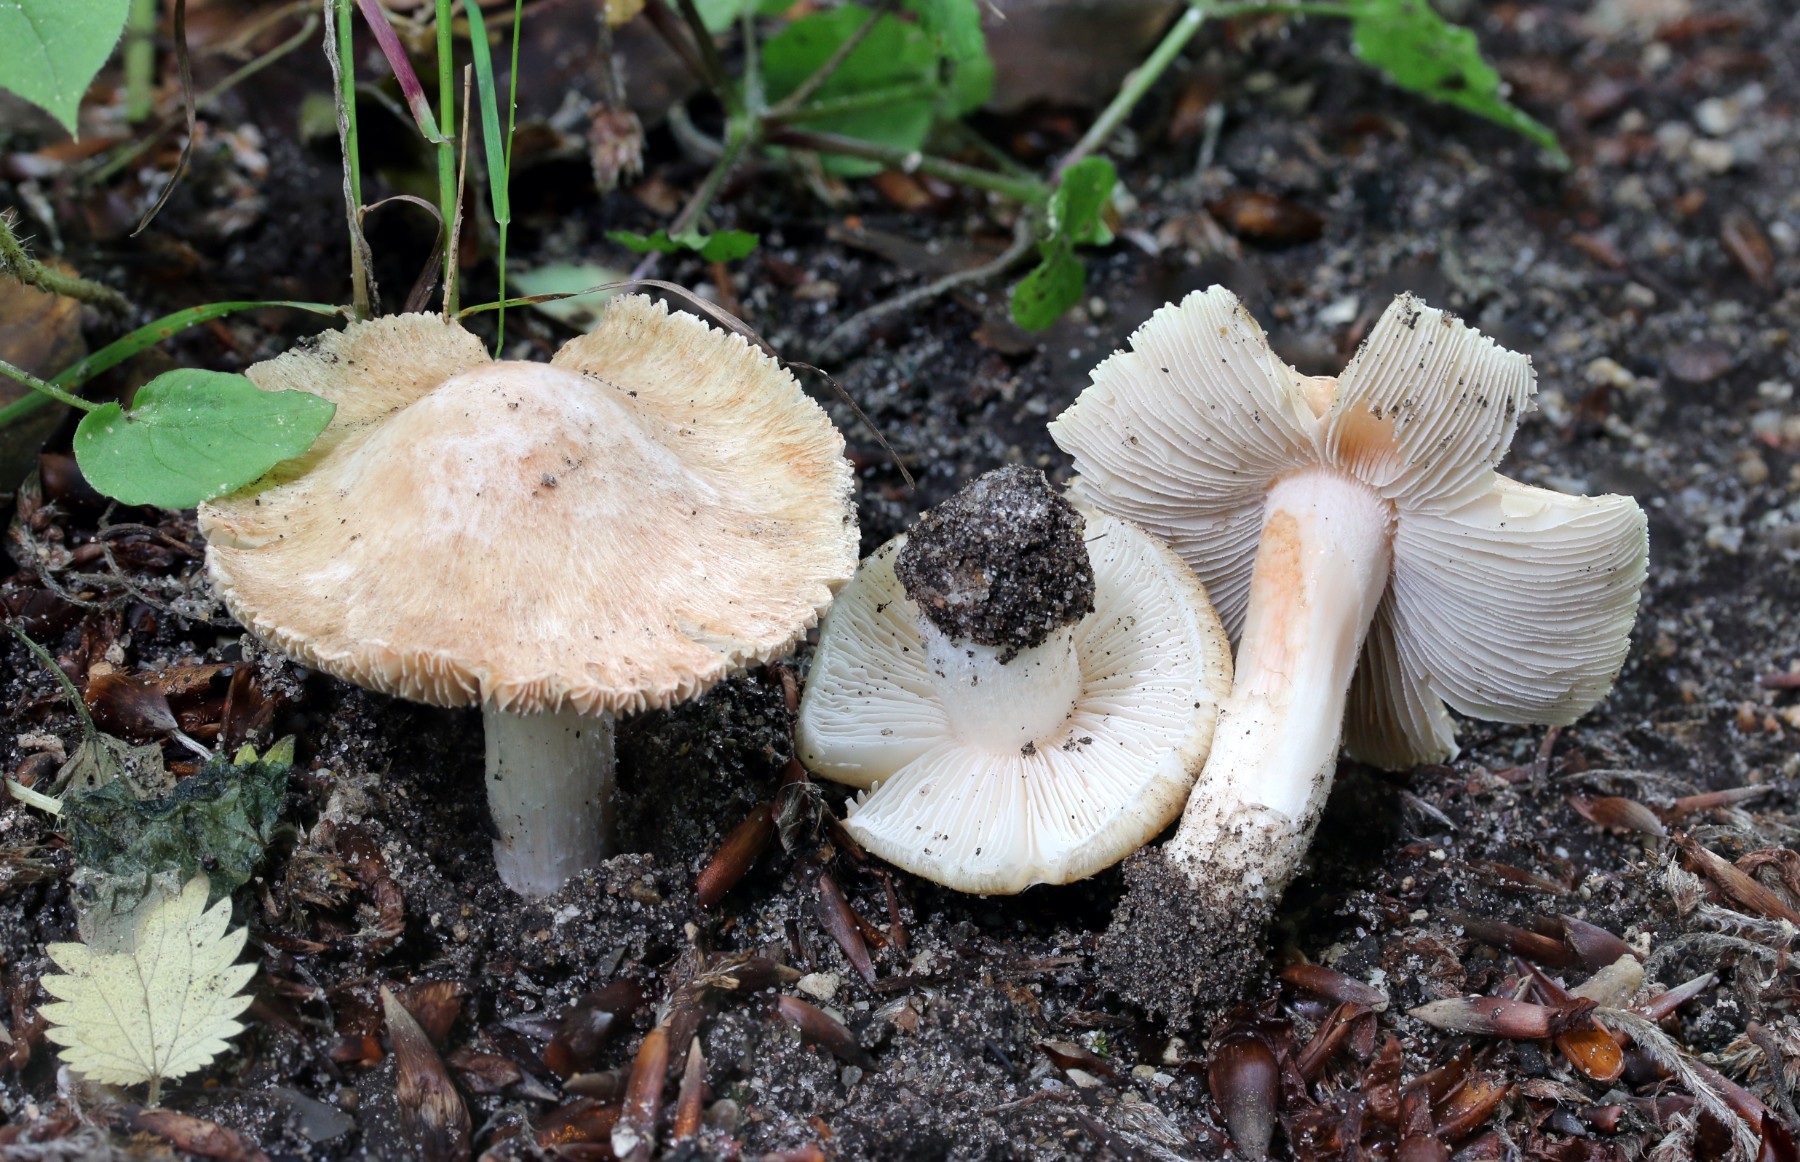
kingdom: Fungi
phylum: Basidiomycota
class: Agaricomycetes
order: Agaricales
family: Inocybaceae
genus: Inosperma
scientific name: Inosperma erubescens
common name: giftig trævlhat
